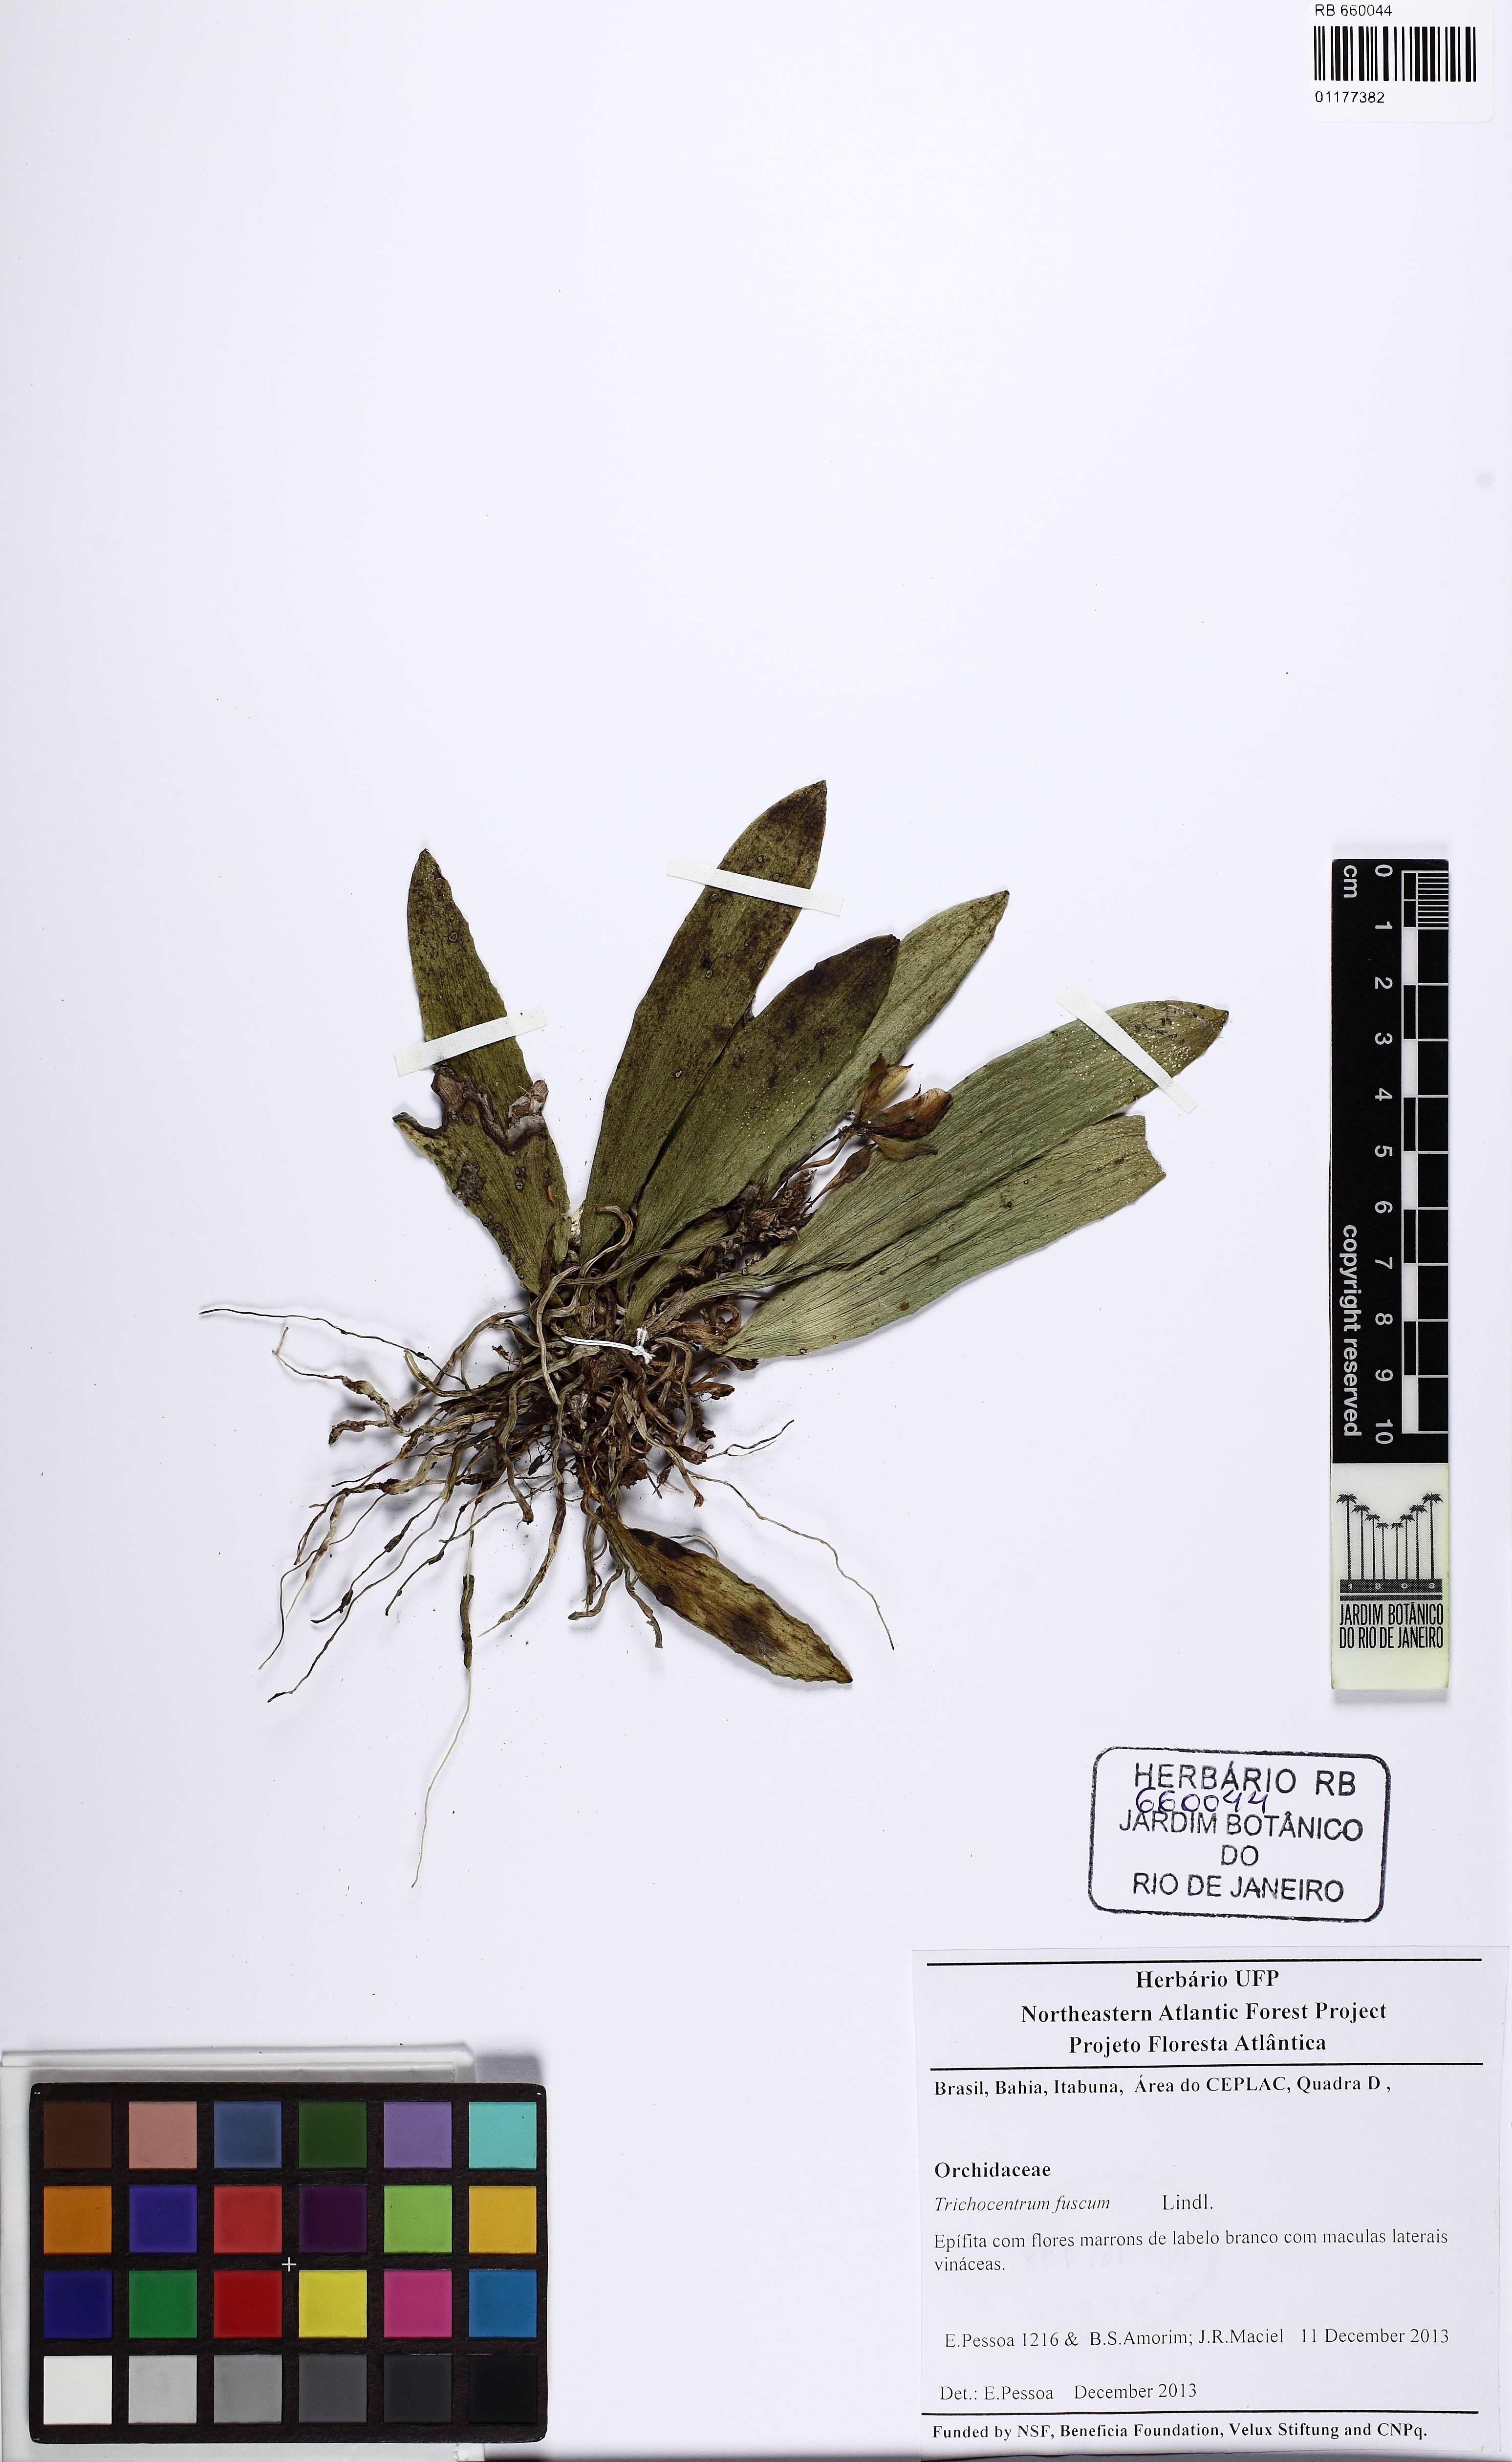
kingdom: Plantae
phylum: Tracheophyta
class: Liliopsida
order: Asparagales
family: Orchidaceae
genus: Trichocentrum
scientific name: Trichocentrum fuscum
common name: Mule-ear orchid
